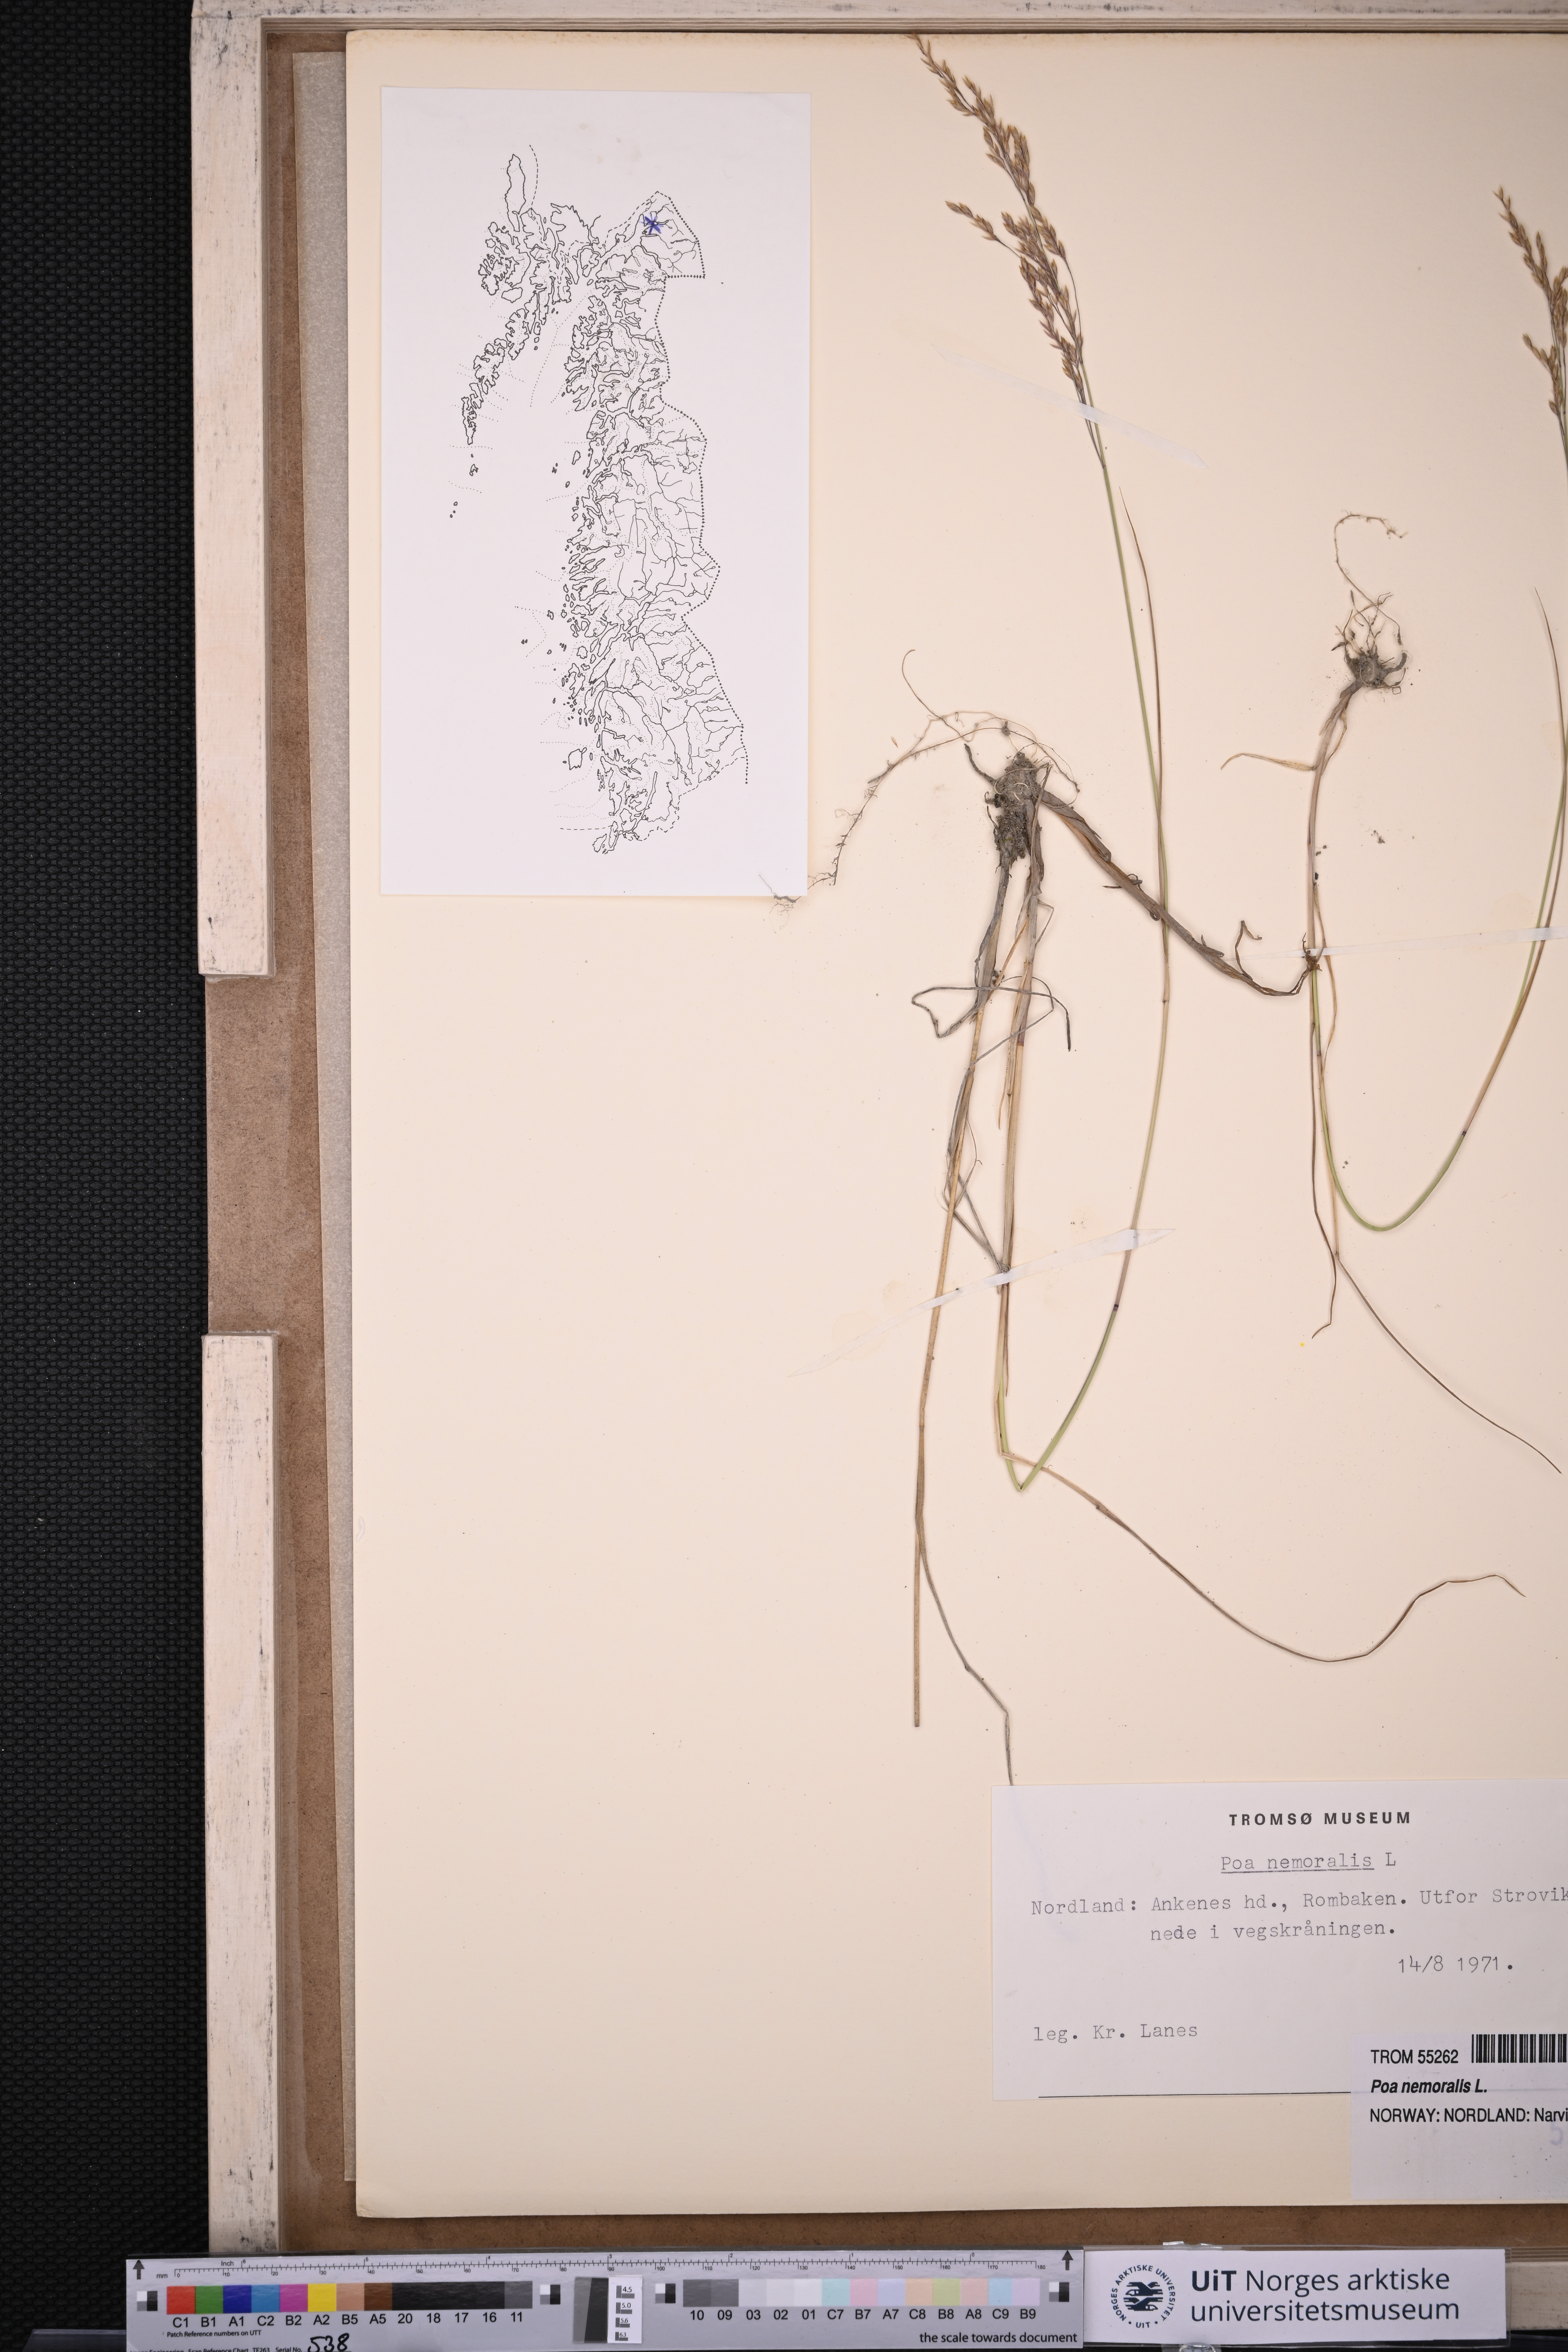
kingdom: Plantae
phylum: Tracheophyta
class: Liliopsida
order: Poales
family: Poaceae
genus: Poa
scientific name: Poa nemoralis
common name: Wood bluegrass
